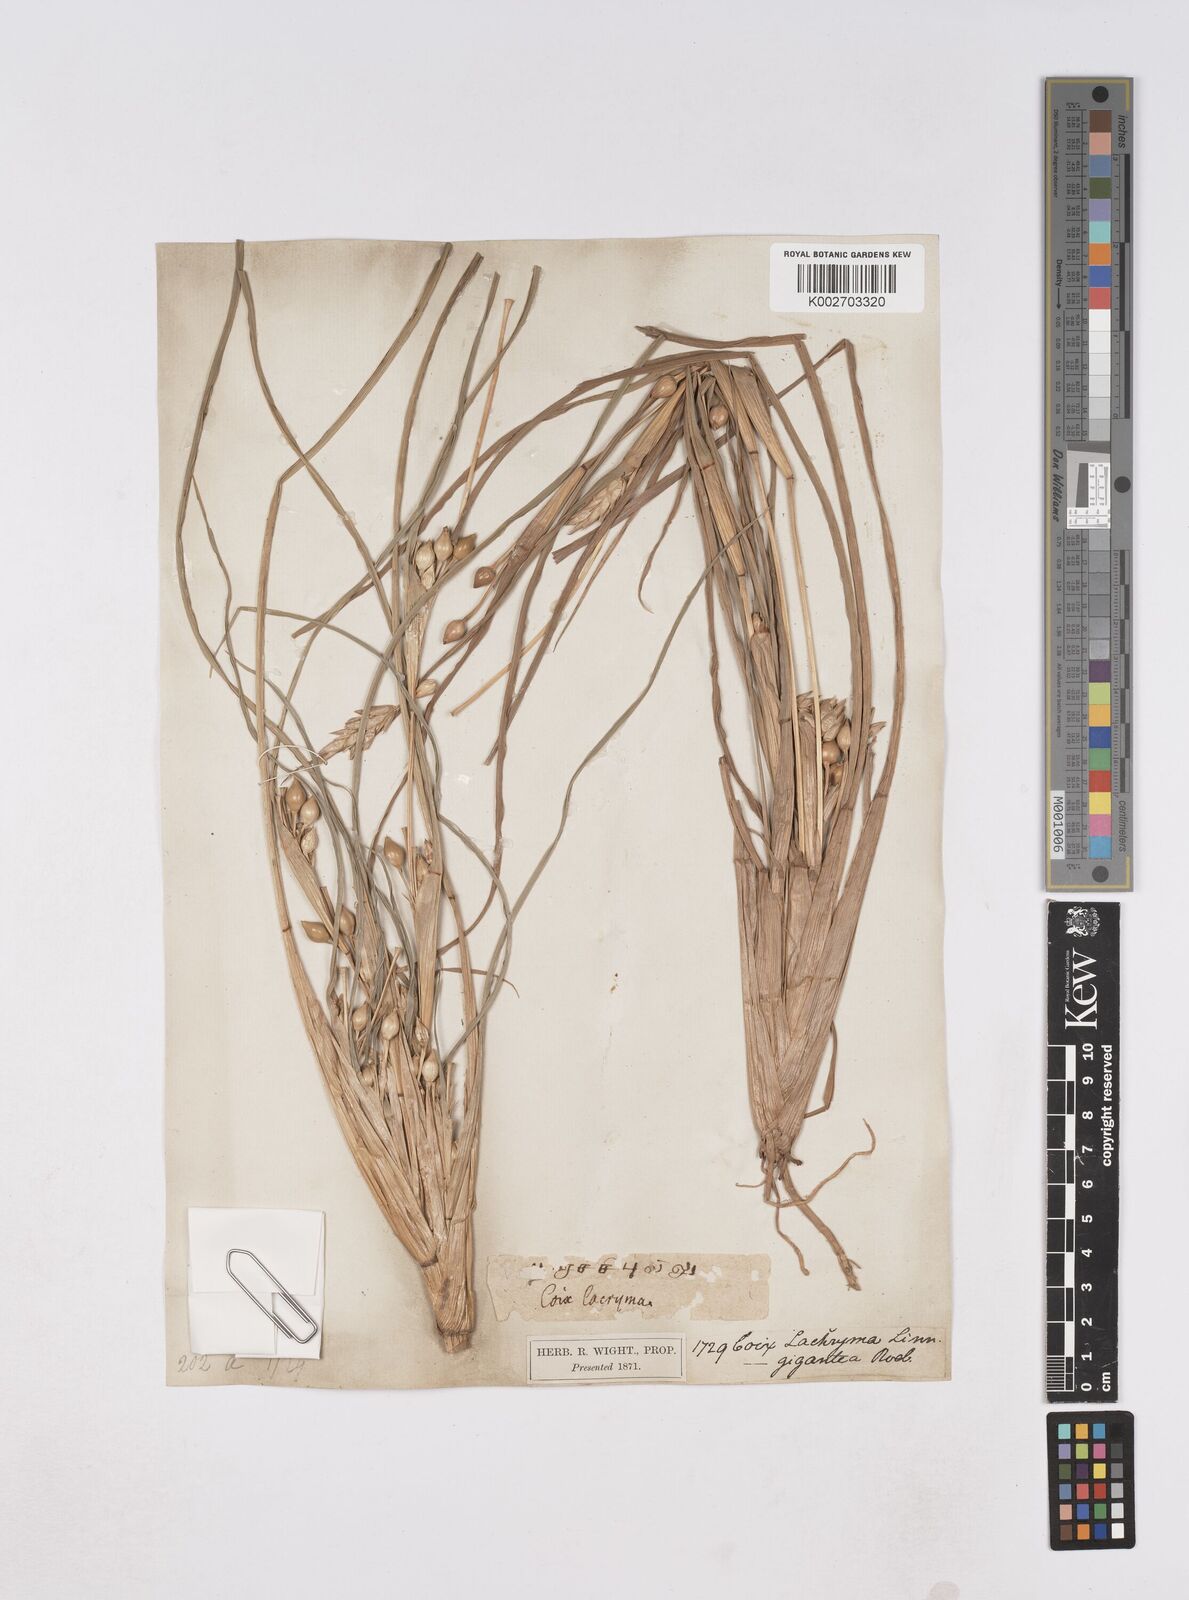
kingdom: Plantae
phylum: Tracheophyta
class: Liliopsida
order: Poales
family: Poaceae
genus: Coix
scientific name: Coix aquatica
